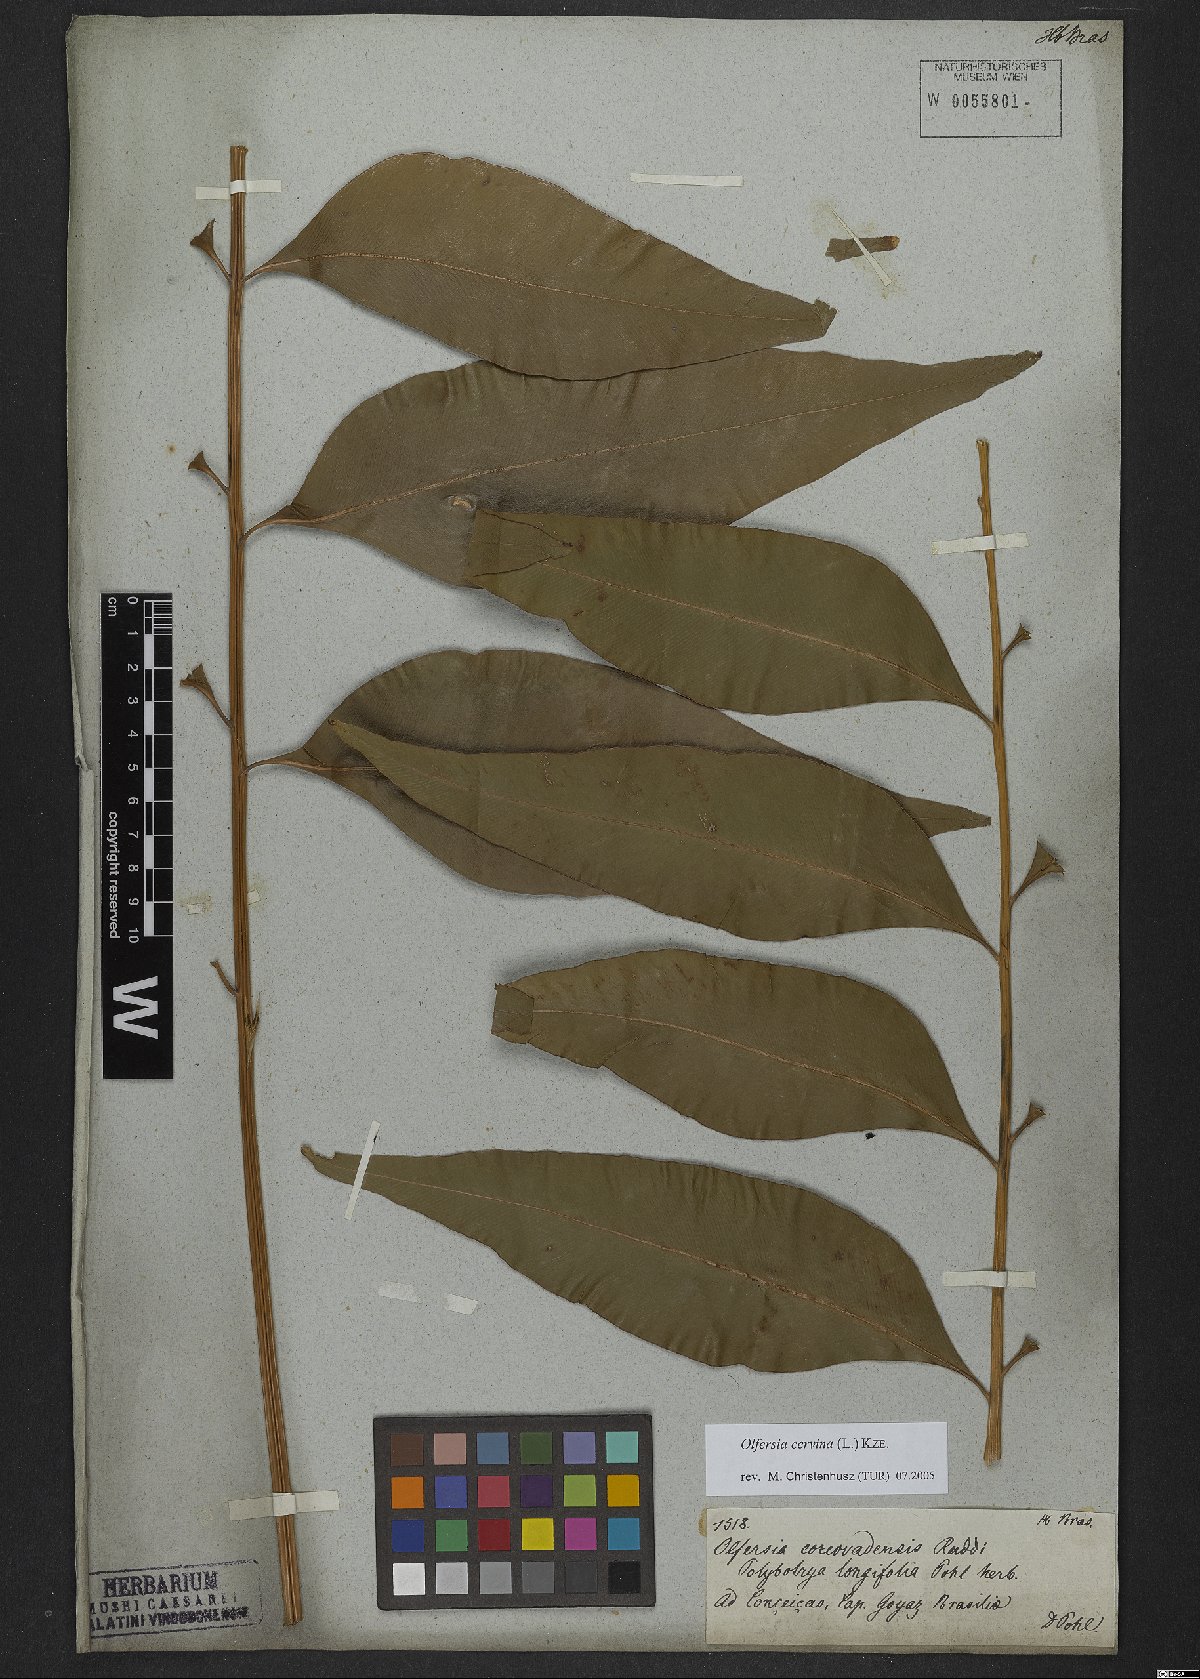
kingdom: Plantae
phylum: Tracheophyta
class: Polypodiopsida
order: Polypodiales
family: Dryopteridaceae
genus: Olfersia
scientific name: Olfersia cervina
